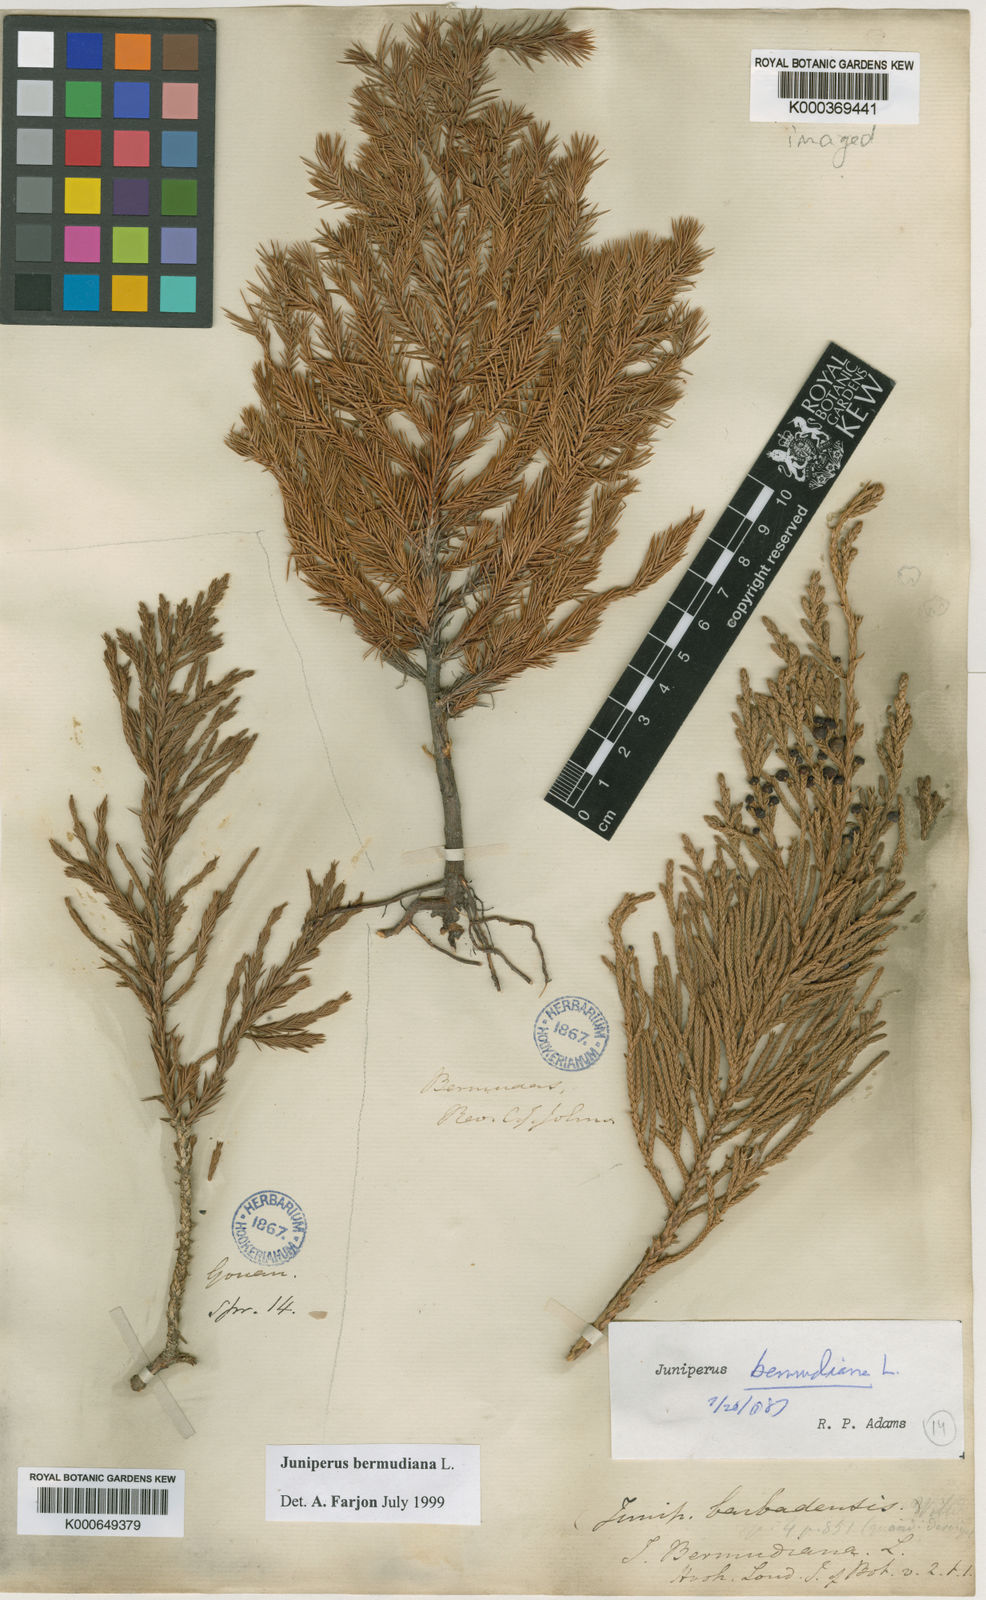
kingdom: Plantae
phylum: Tracheophyta
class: Pinopsida
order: Pinales
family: Cupressaceae
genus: Juniperus
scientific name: Juniperus bermudiana
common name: Bermuda juniper
